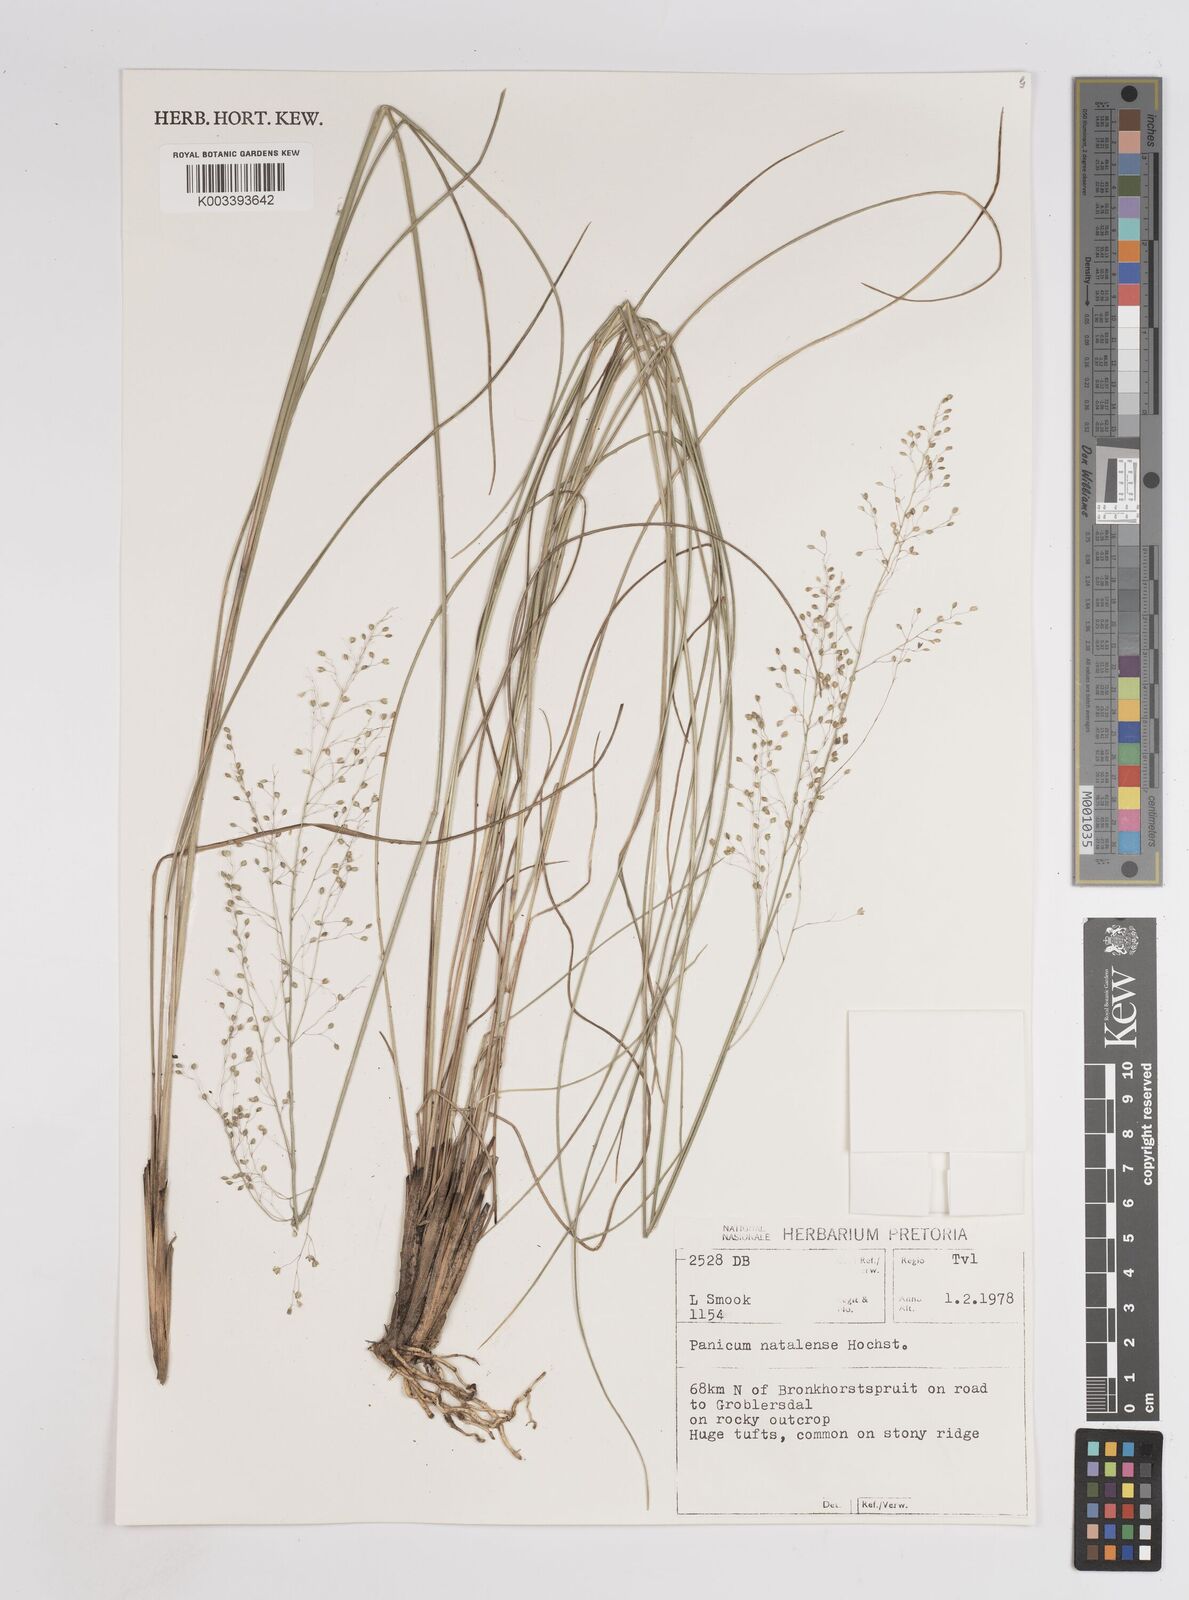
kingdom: Plantae
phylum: Tracheophyta
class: Liliopsida
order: Poales
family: Poaceae
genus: Trichanthecium
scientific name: Trichanthecium natalense
